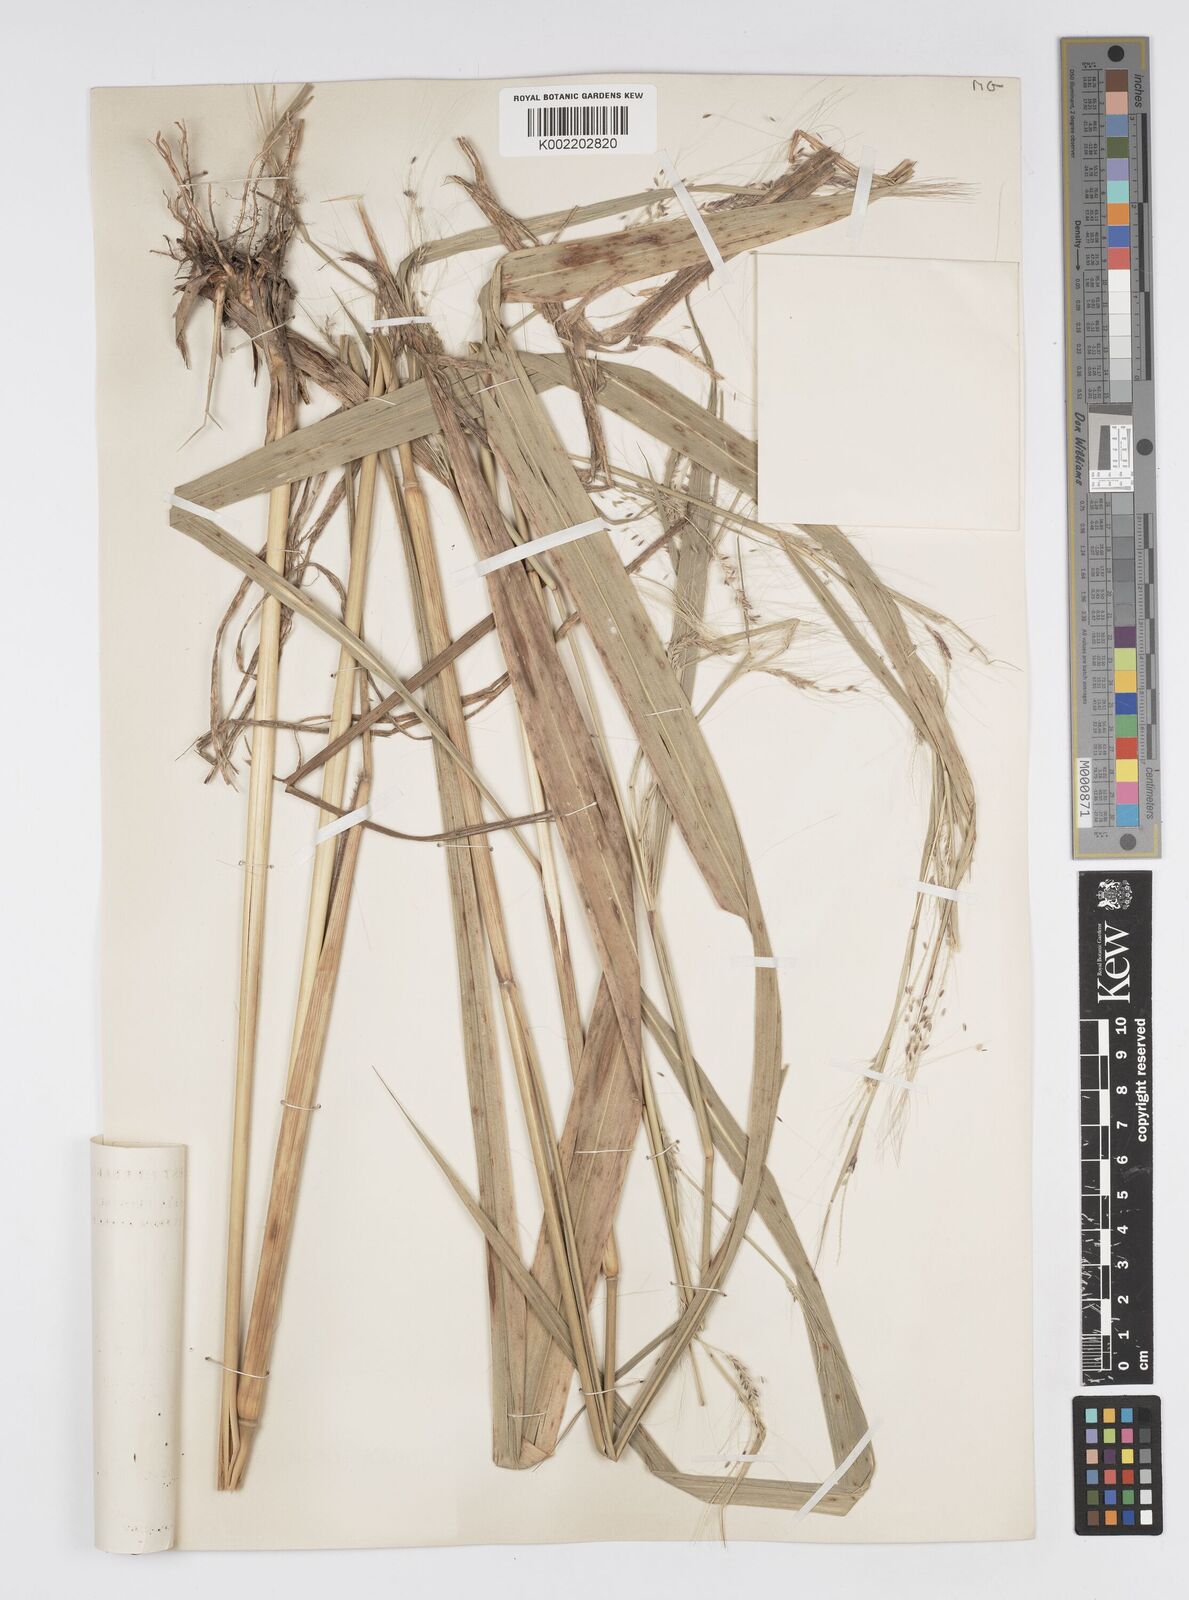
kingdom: Plantae
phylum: Tracheophyta
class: Liliopsida
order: Poales
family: Poaceae
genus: Cenchrus
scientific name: Cenchrus unisetus
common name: Natal grass
